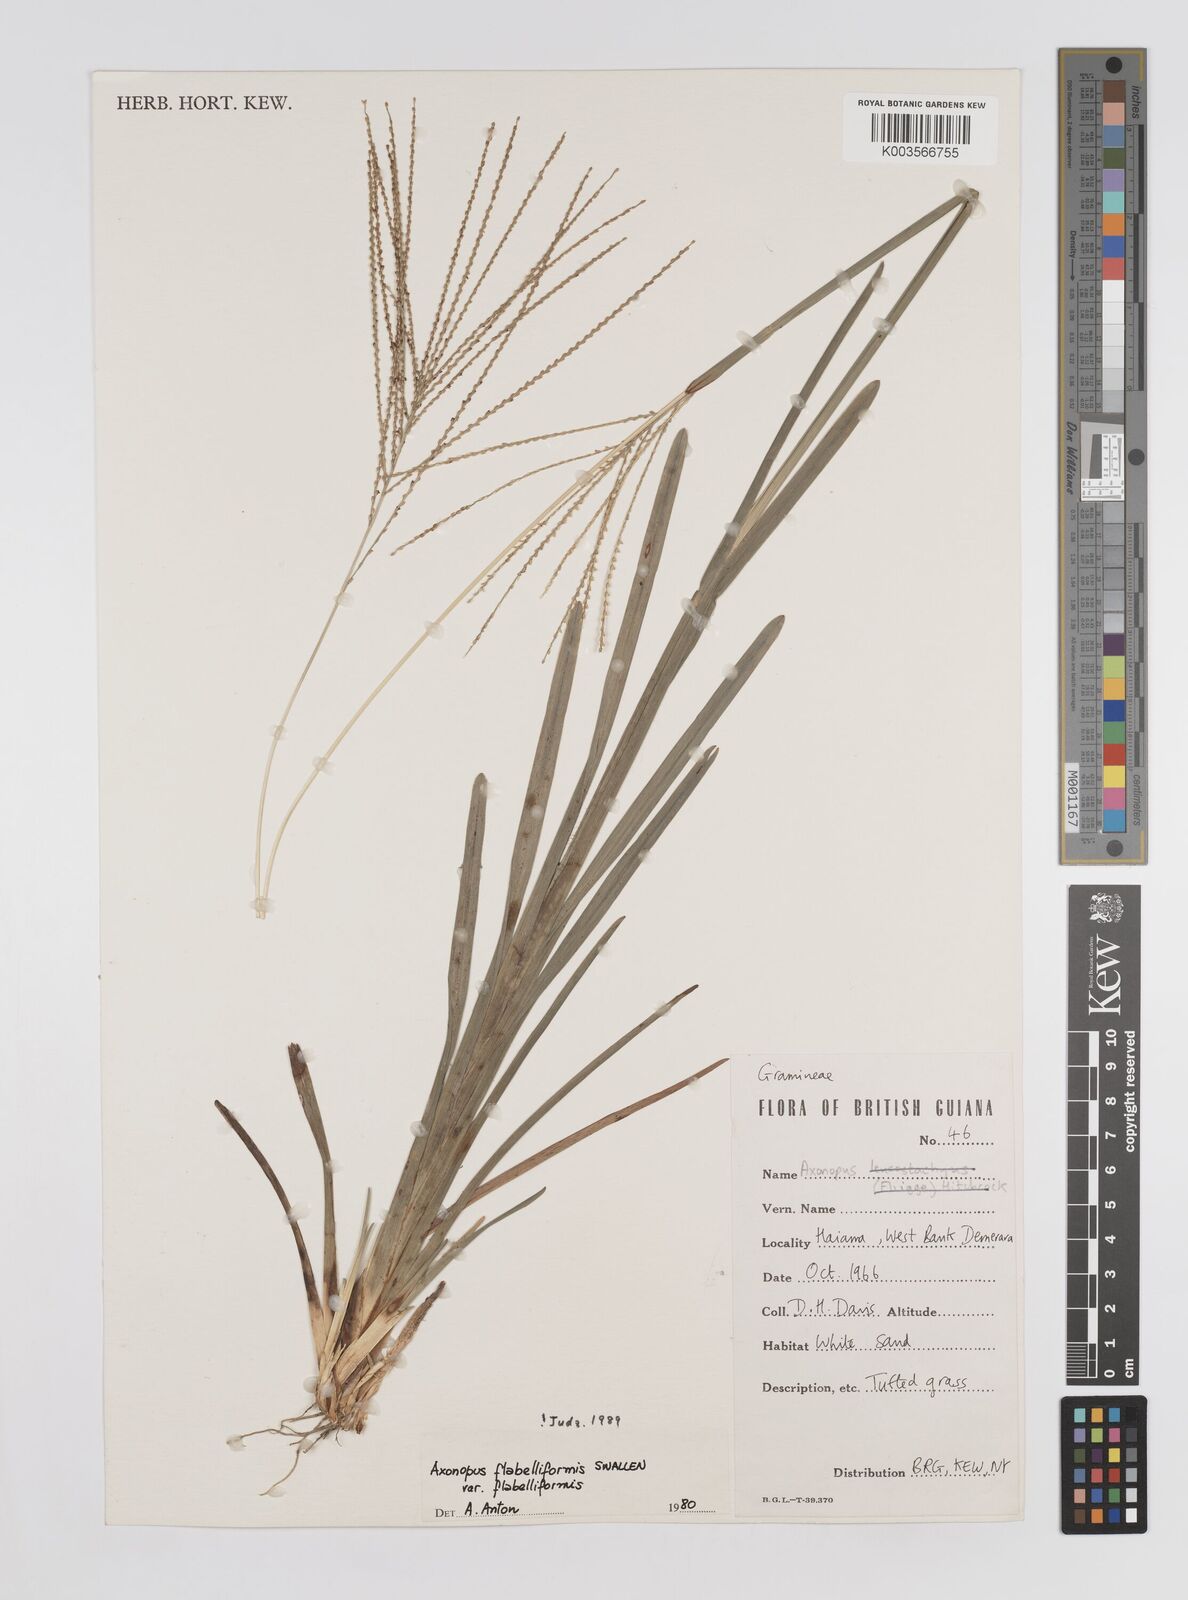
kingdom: Plantae
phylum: Tracheophyta
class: Liliopsida
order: Poales
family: Poaceae
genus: Axonopus
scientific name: Axonopus flabelliformis
